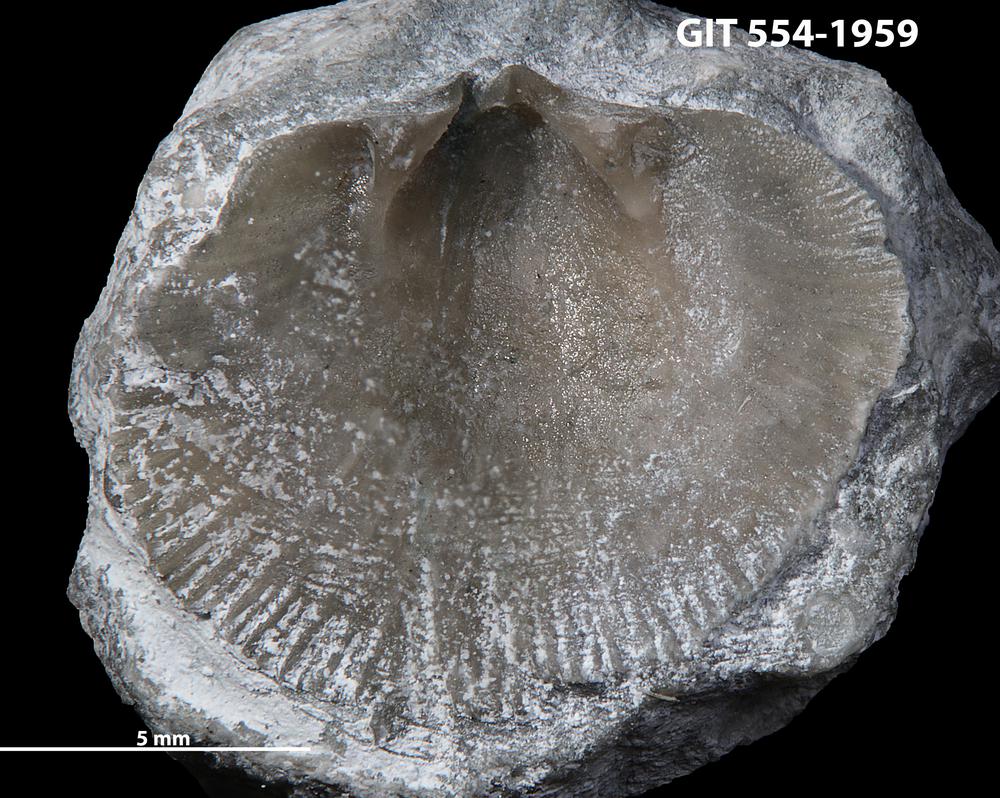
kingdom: Animalia
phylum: Brachiopoda
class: Rhynchonellata
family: Schizophoriidae
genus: Salopina
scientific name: Salopina Dalmanella conservatrix
